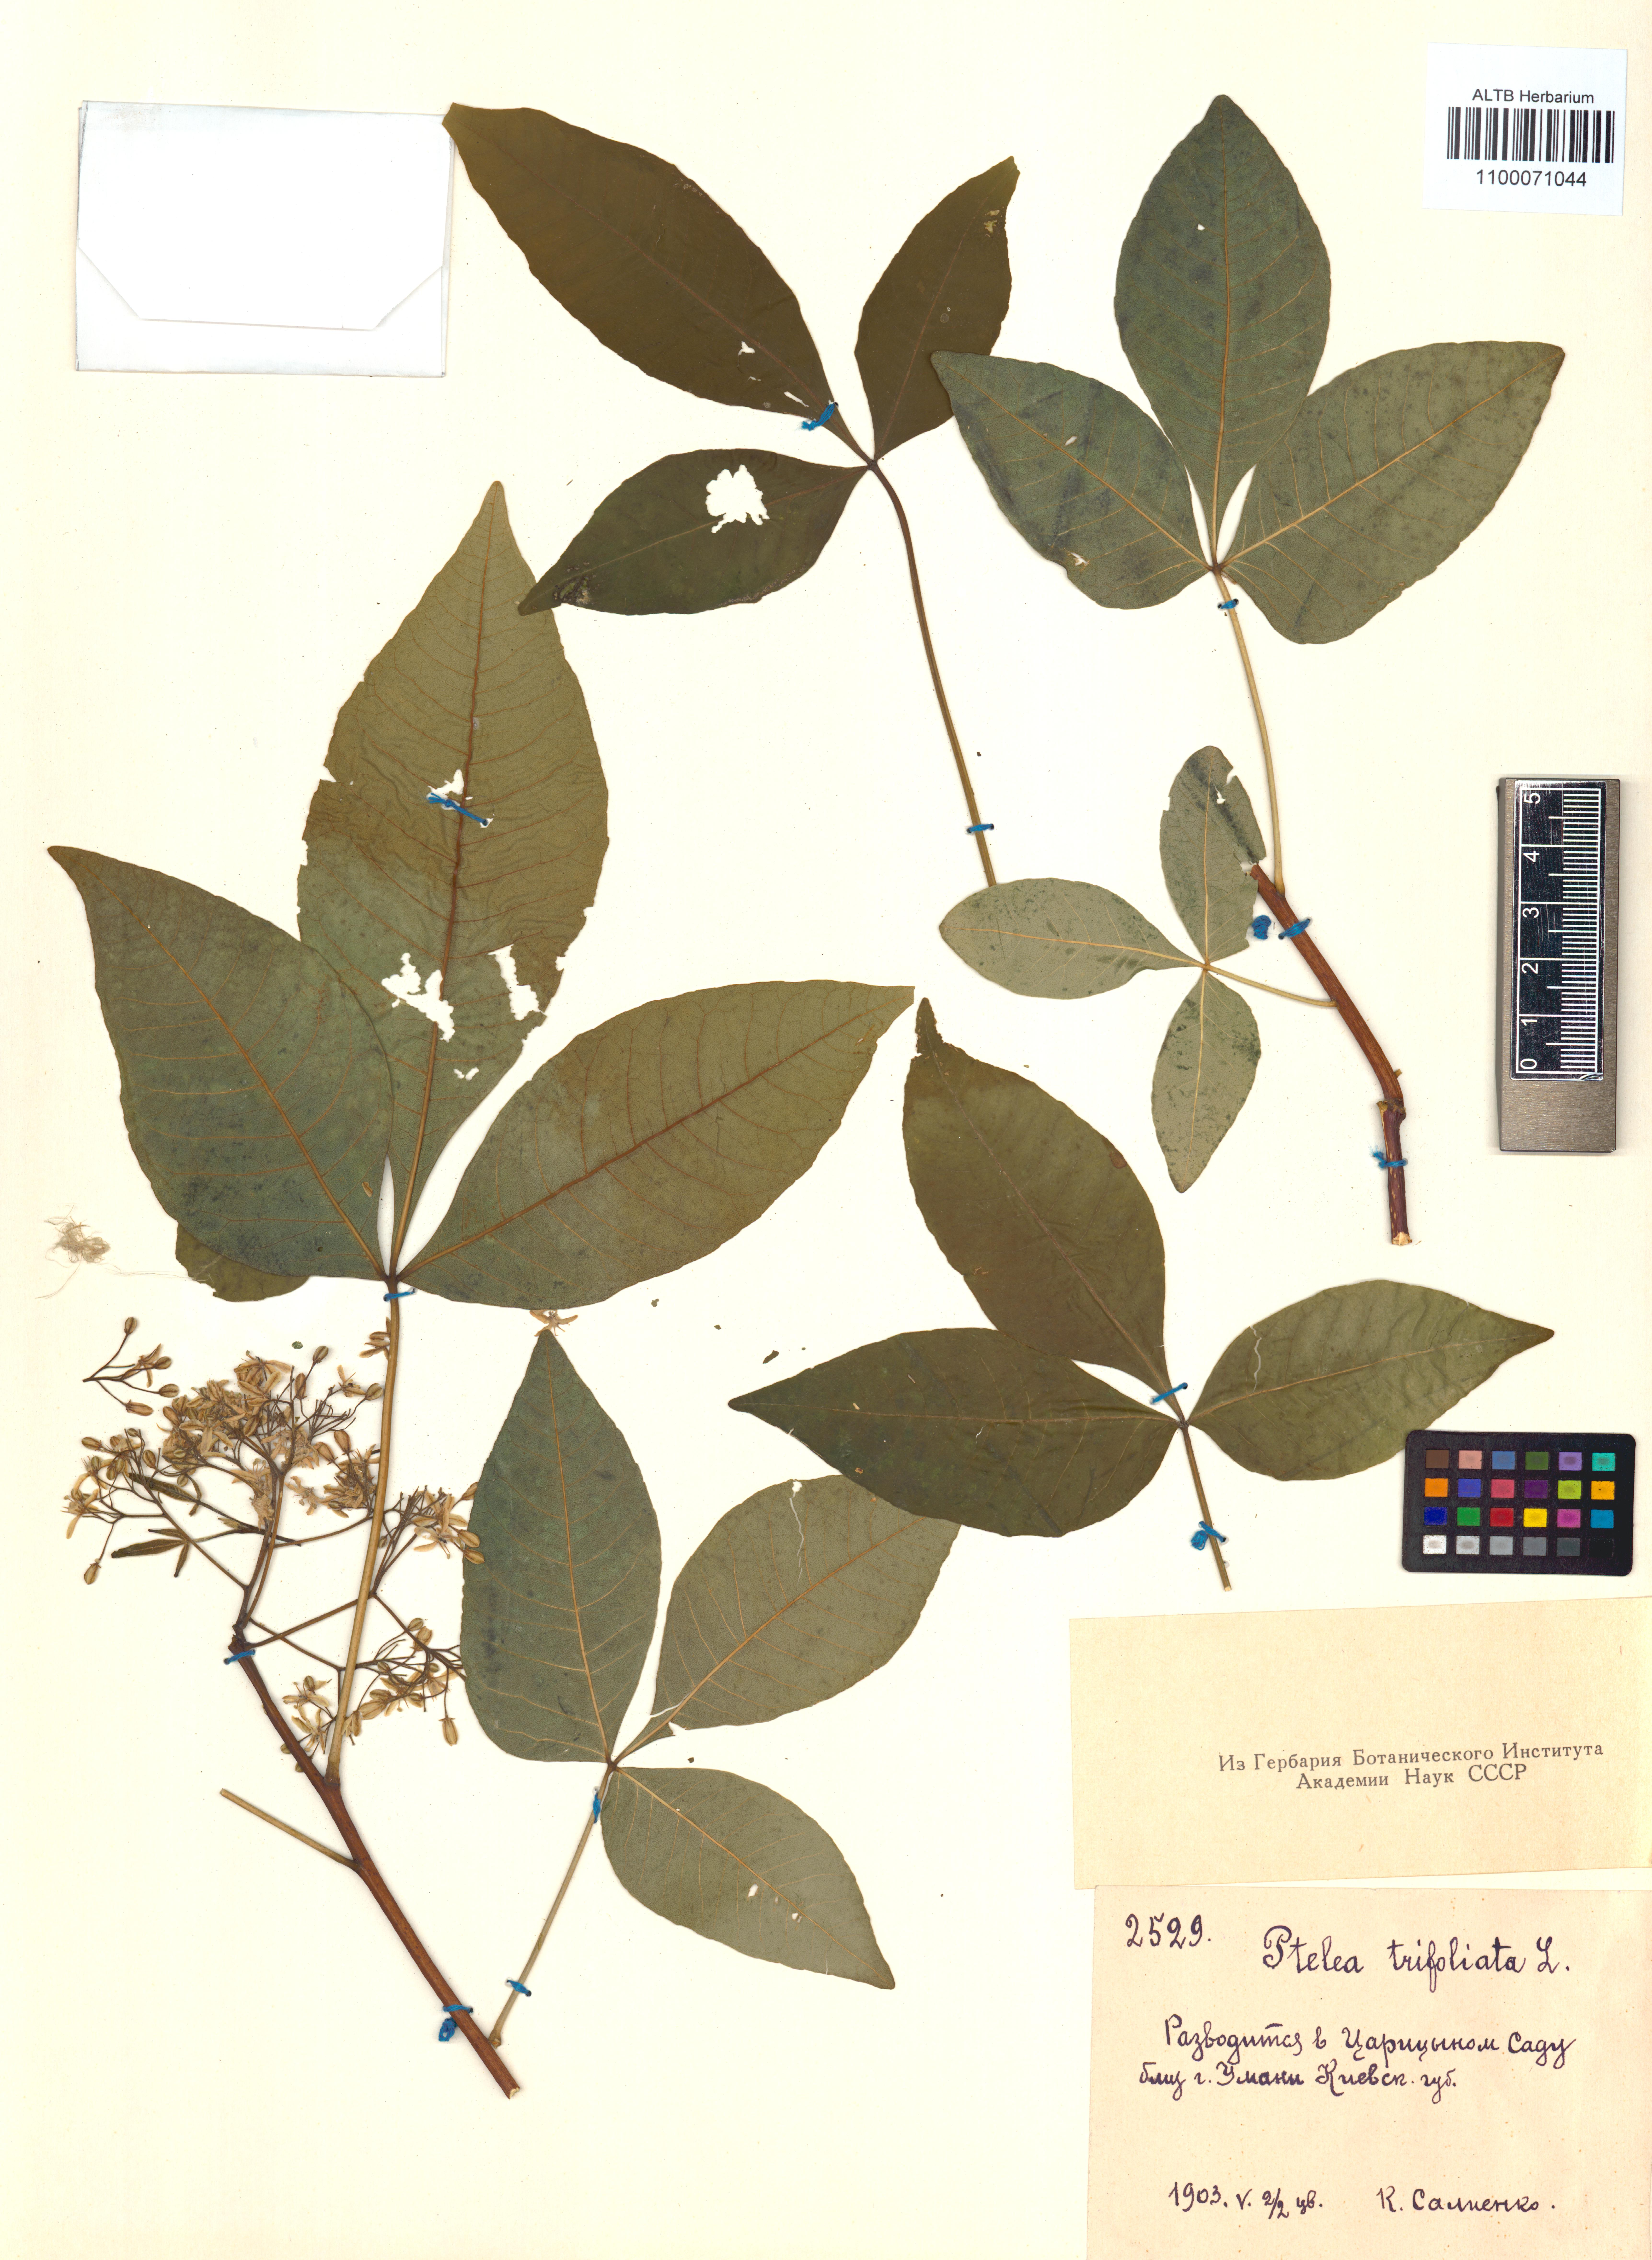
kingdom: Plantae
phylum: Tracheophyta
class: Magnoliopsida
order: Sapindales
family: Rutaceae
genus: Ptelea
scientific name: Ptelea trifoliata
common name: Common hop-tree
